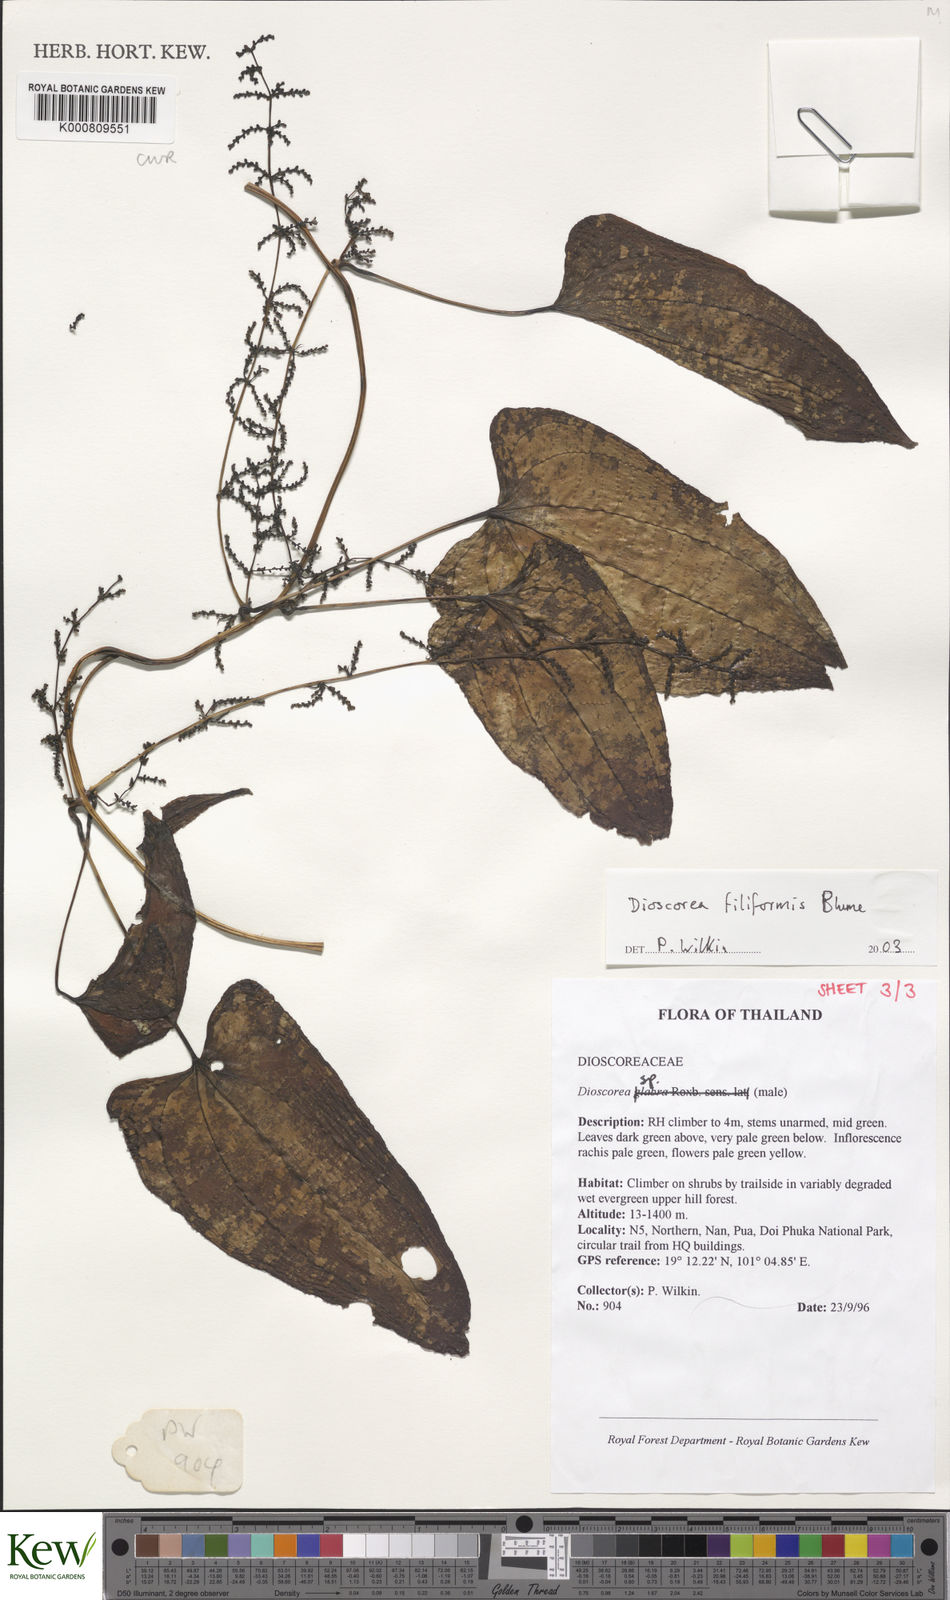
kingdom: Plantae
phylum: Tracheophyta
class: Liliopsida
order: Dioscoreales
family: Dioscoreaceae
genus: Dioscorea
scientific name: Dioscorea filiformis
